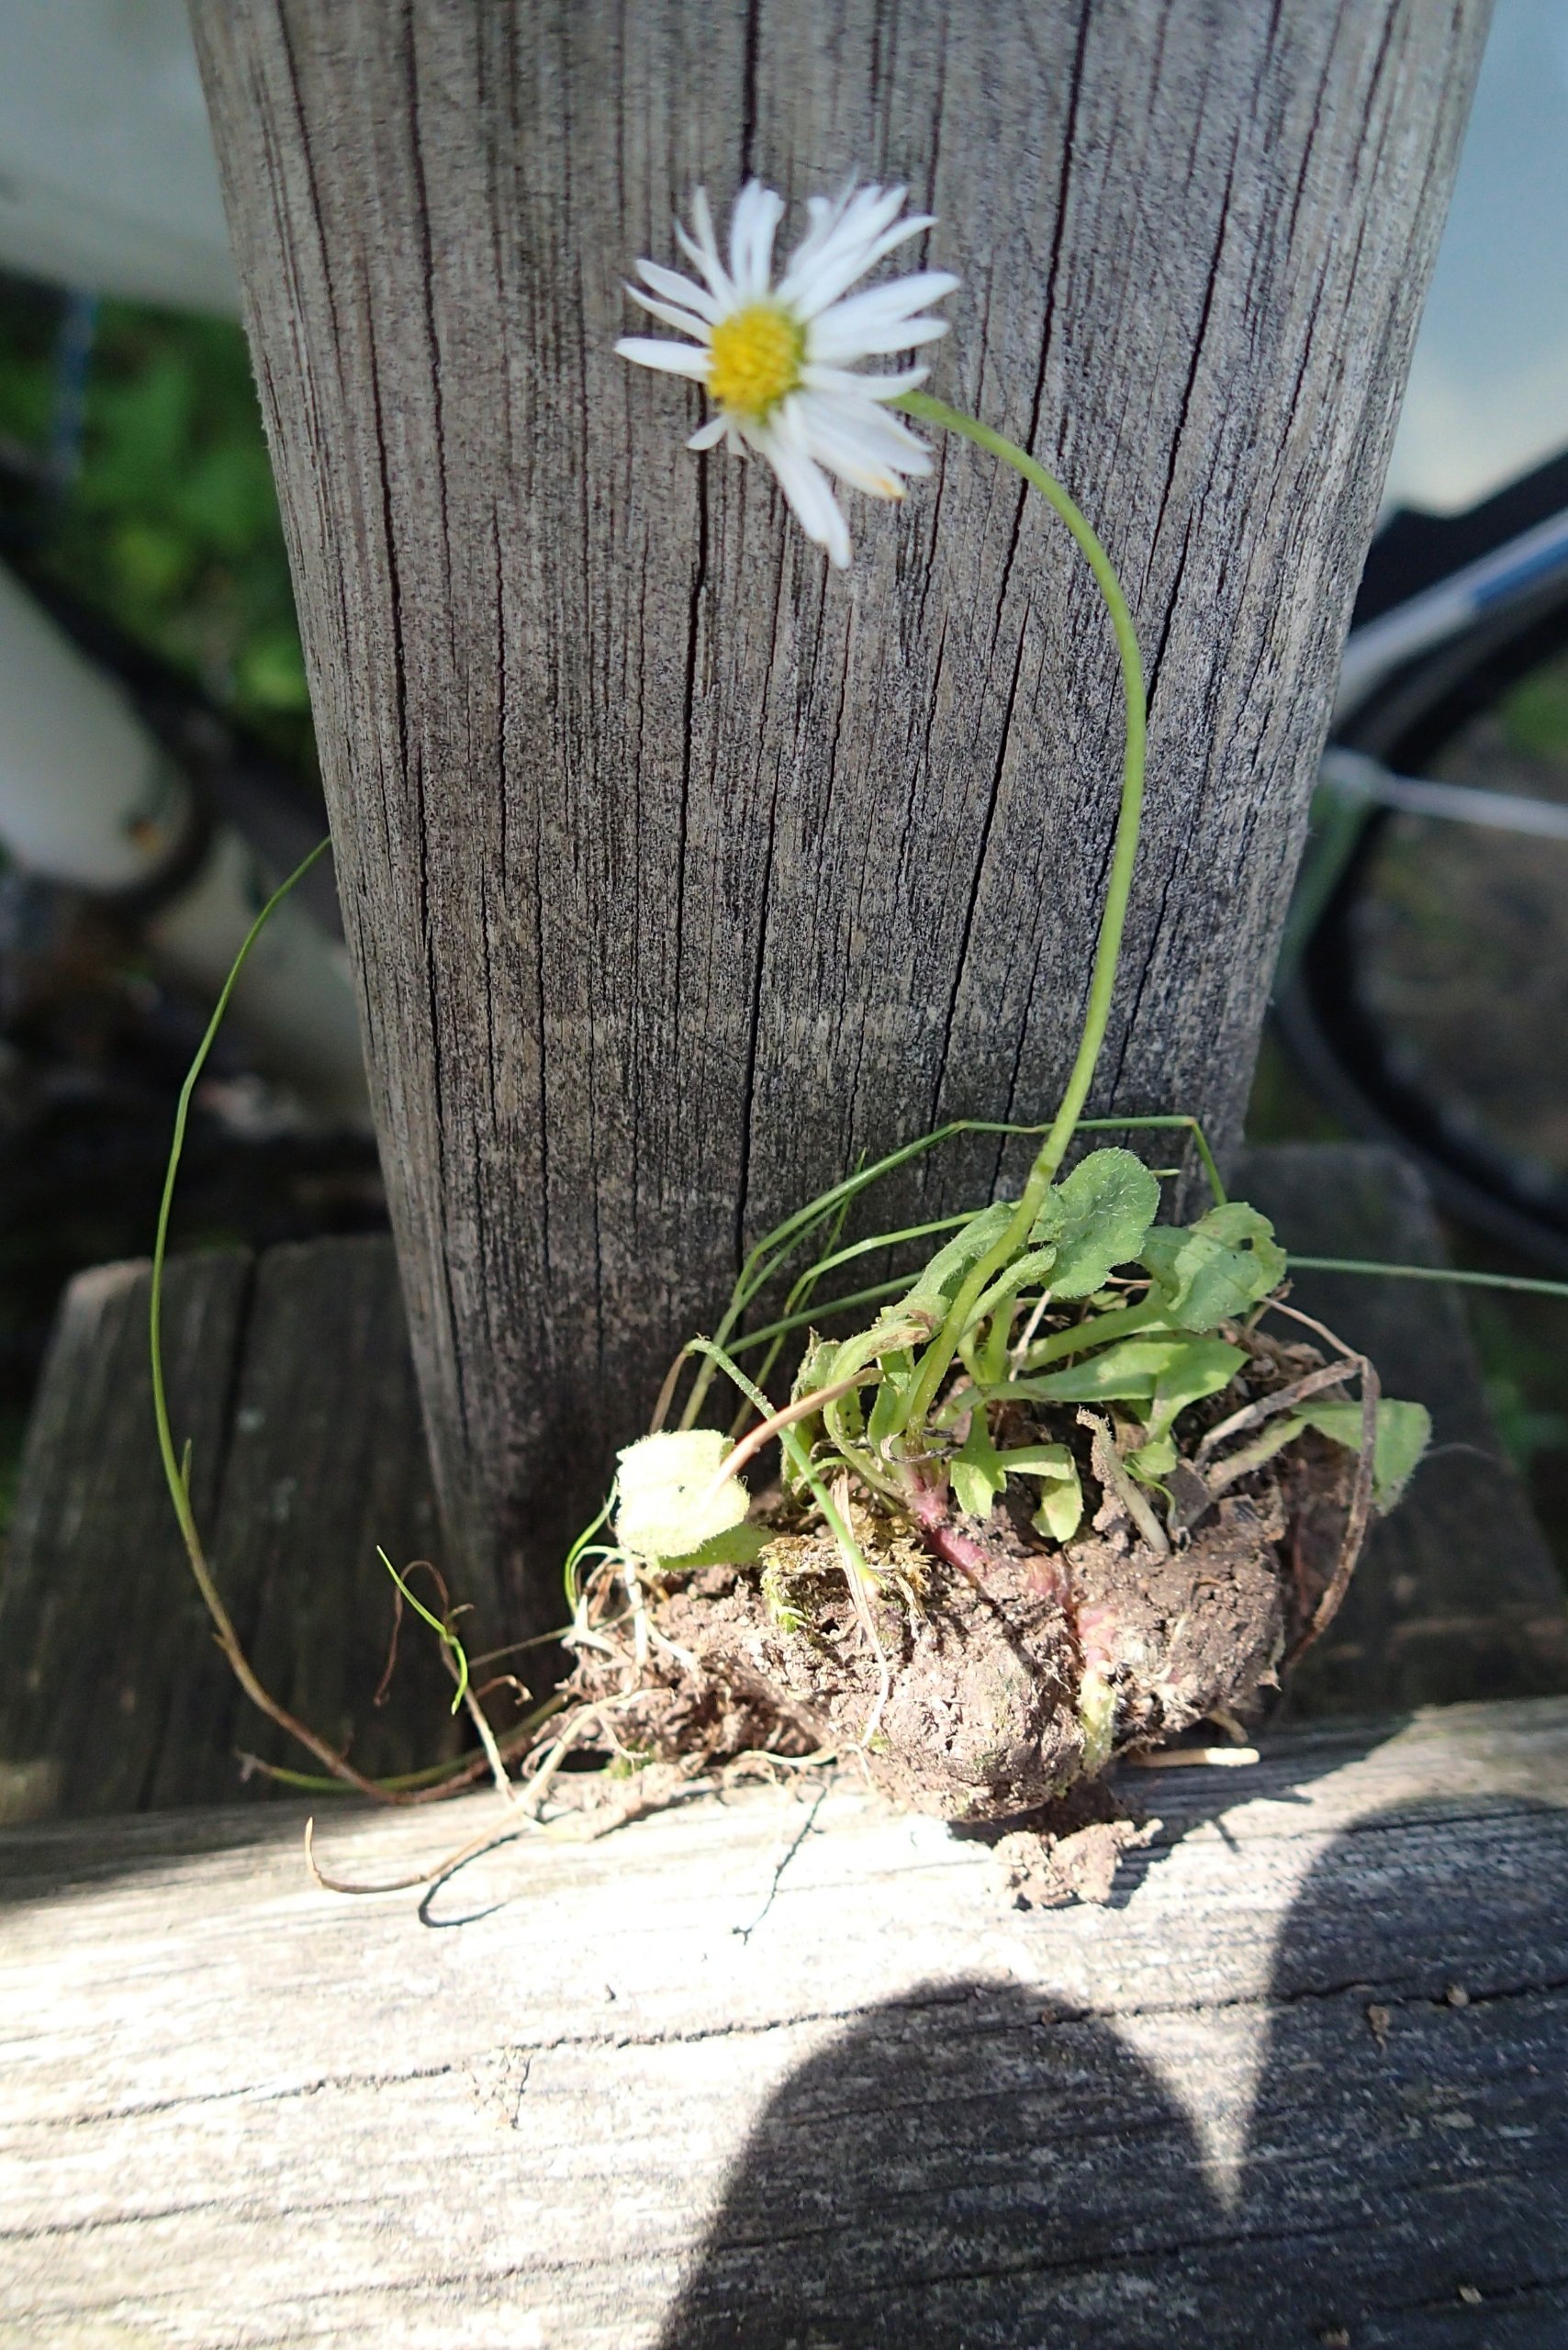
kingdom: Plantae
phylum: Tracheophyta
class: Magnoliopsida
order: Asterales
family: Asteraceae
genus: Bellis
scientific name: Bellis perennis
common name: Tusindfryd
